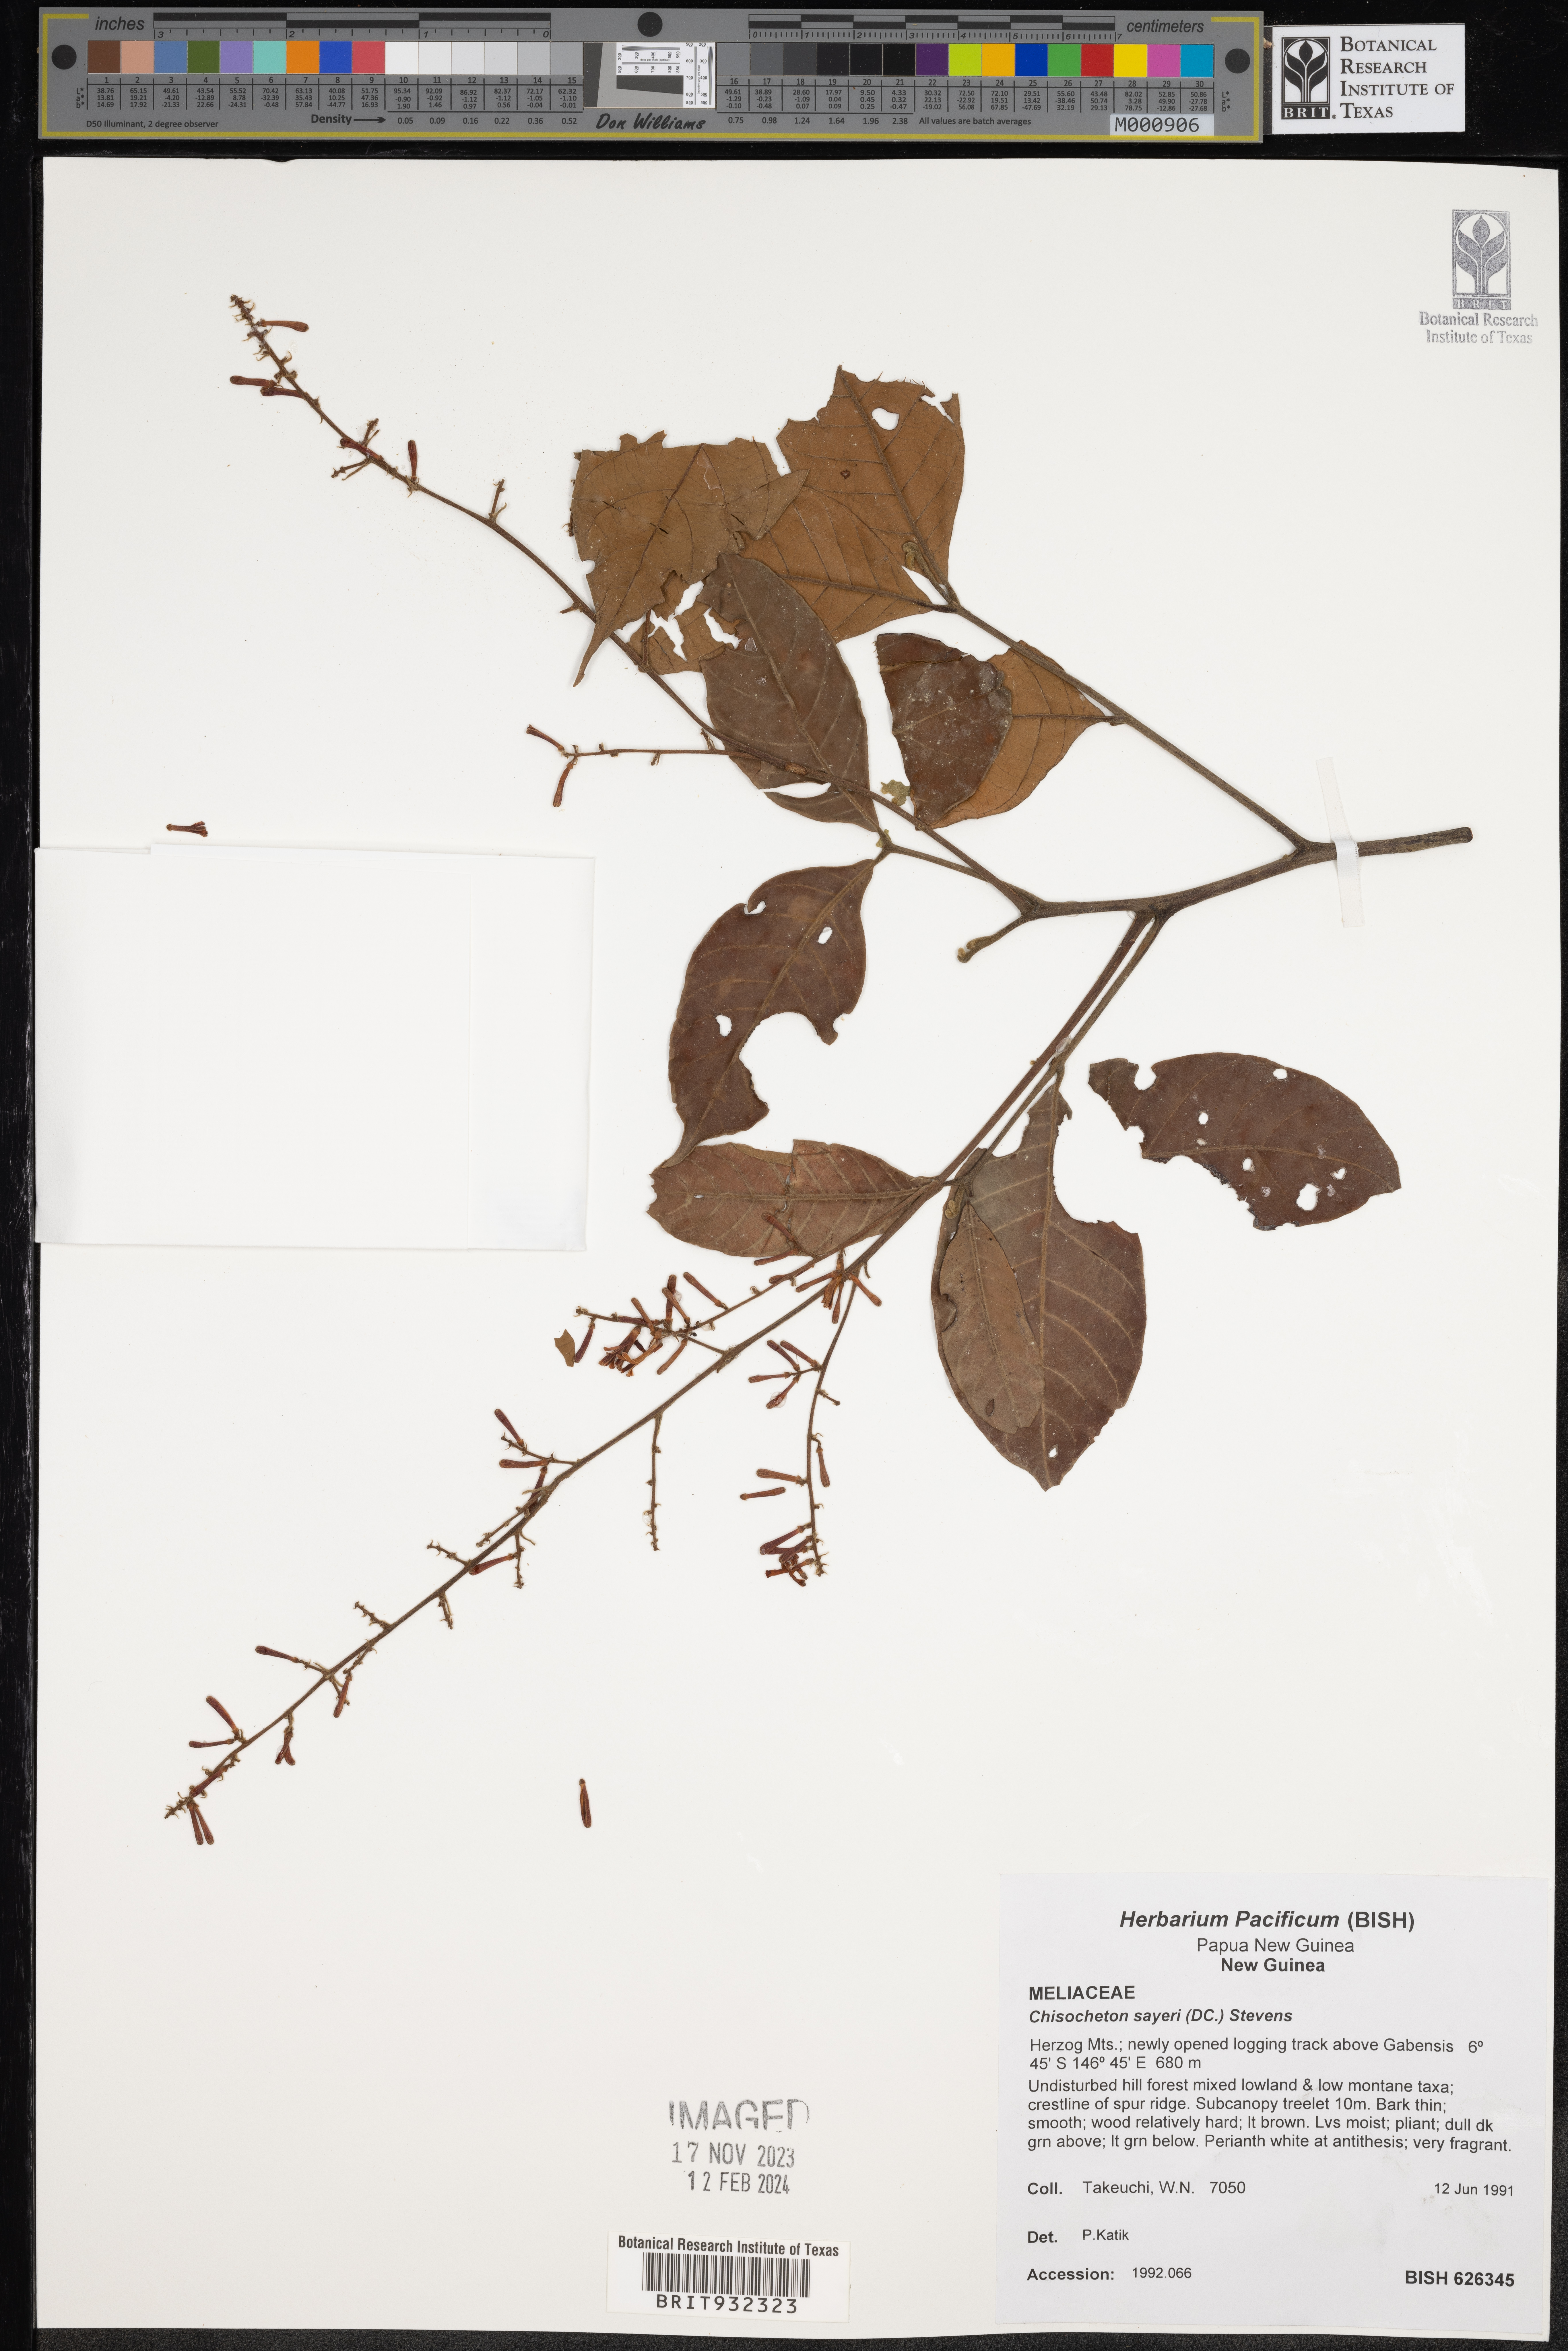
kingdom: Plantae
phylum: Tracheophyta
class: Magnoliopsida
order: Sapindales
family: Meliaceae
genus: Chisocheton
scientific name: Chisocheton
